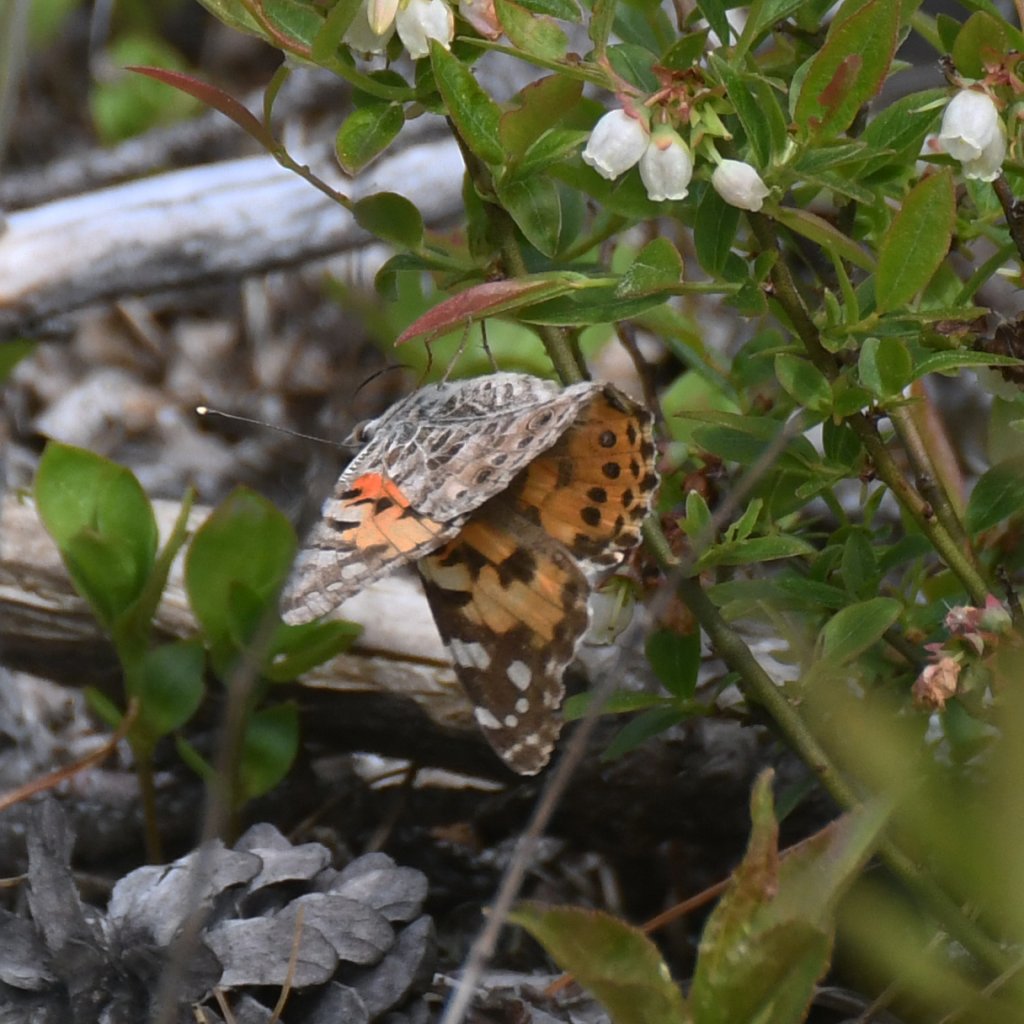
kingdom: Animalia
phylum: Arthropoda
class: Insecta
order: Lepidoptera
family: Nymphalidae
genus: Vanessa
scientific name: Vanessa cardui
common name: Painted Lady
